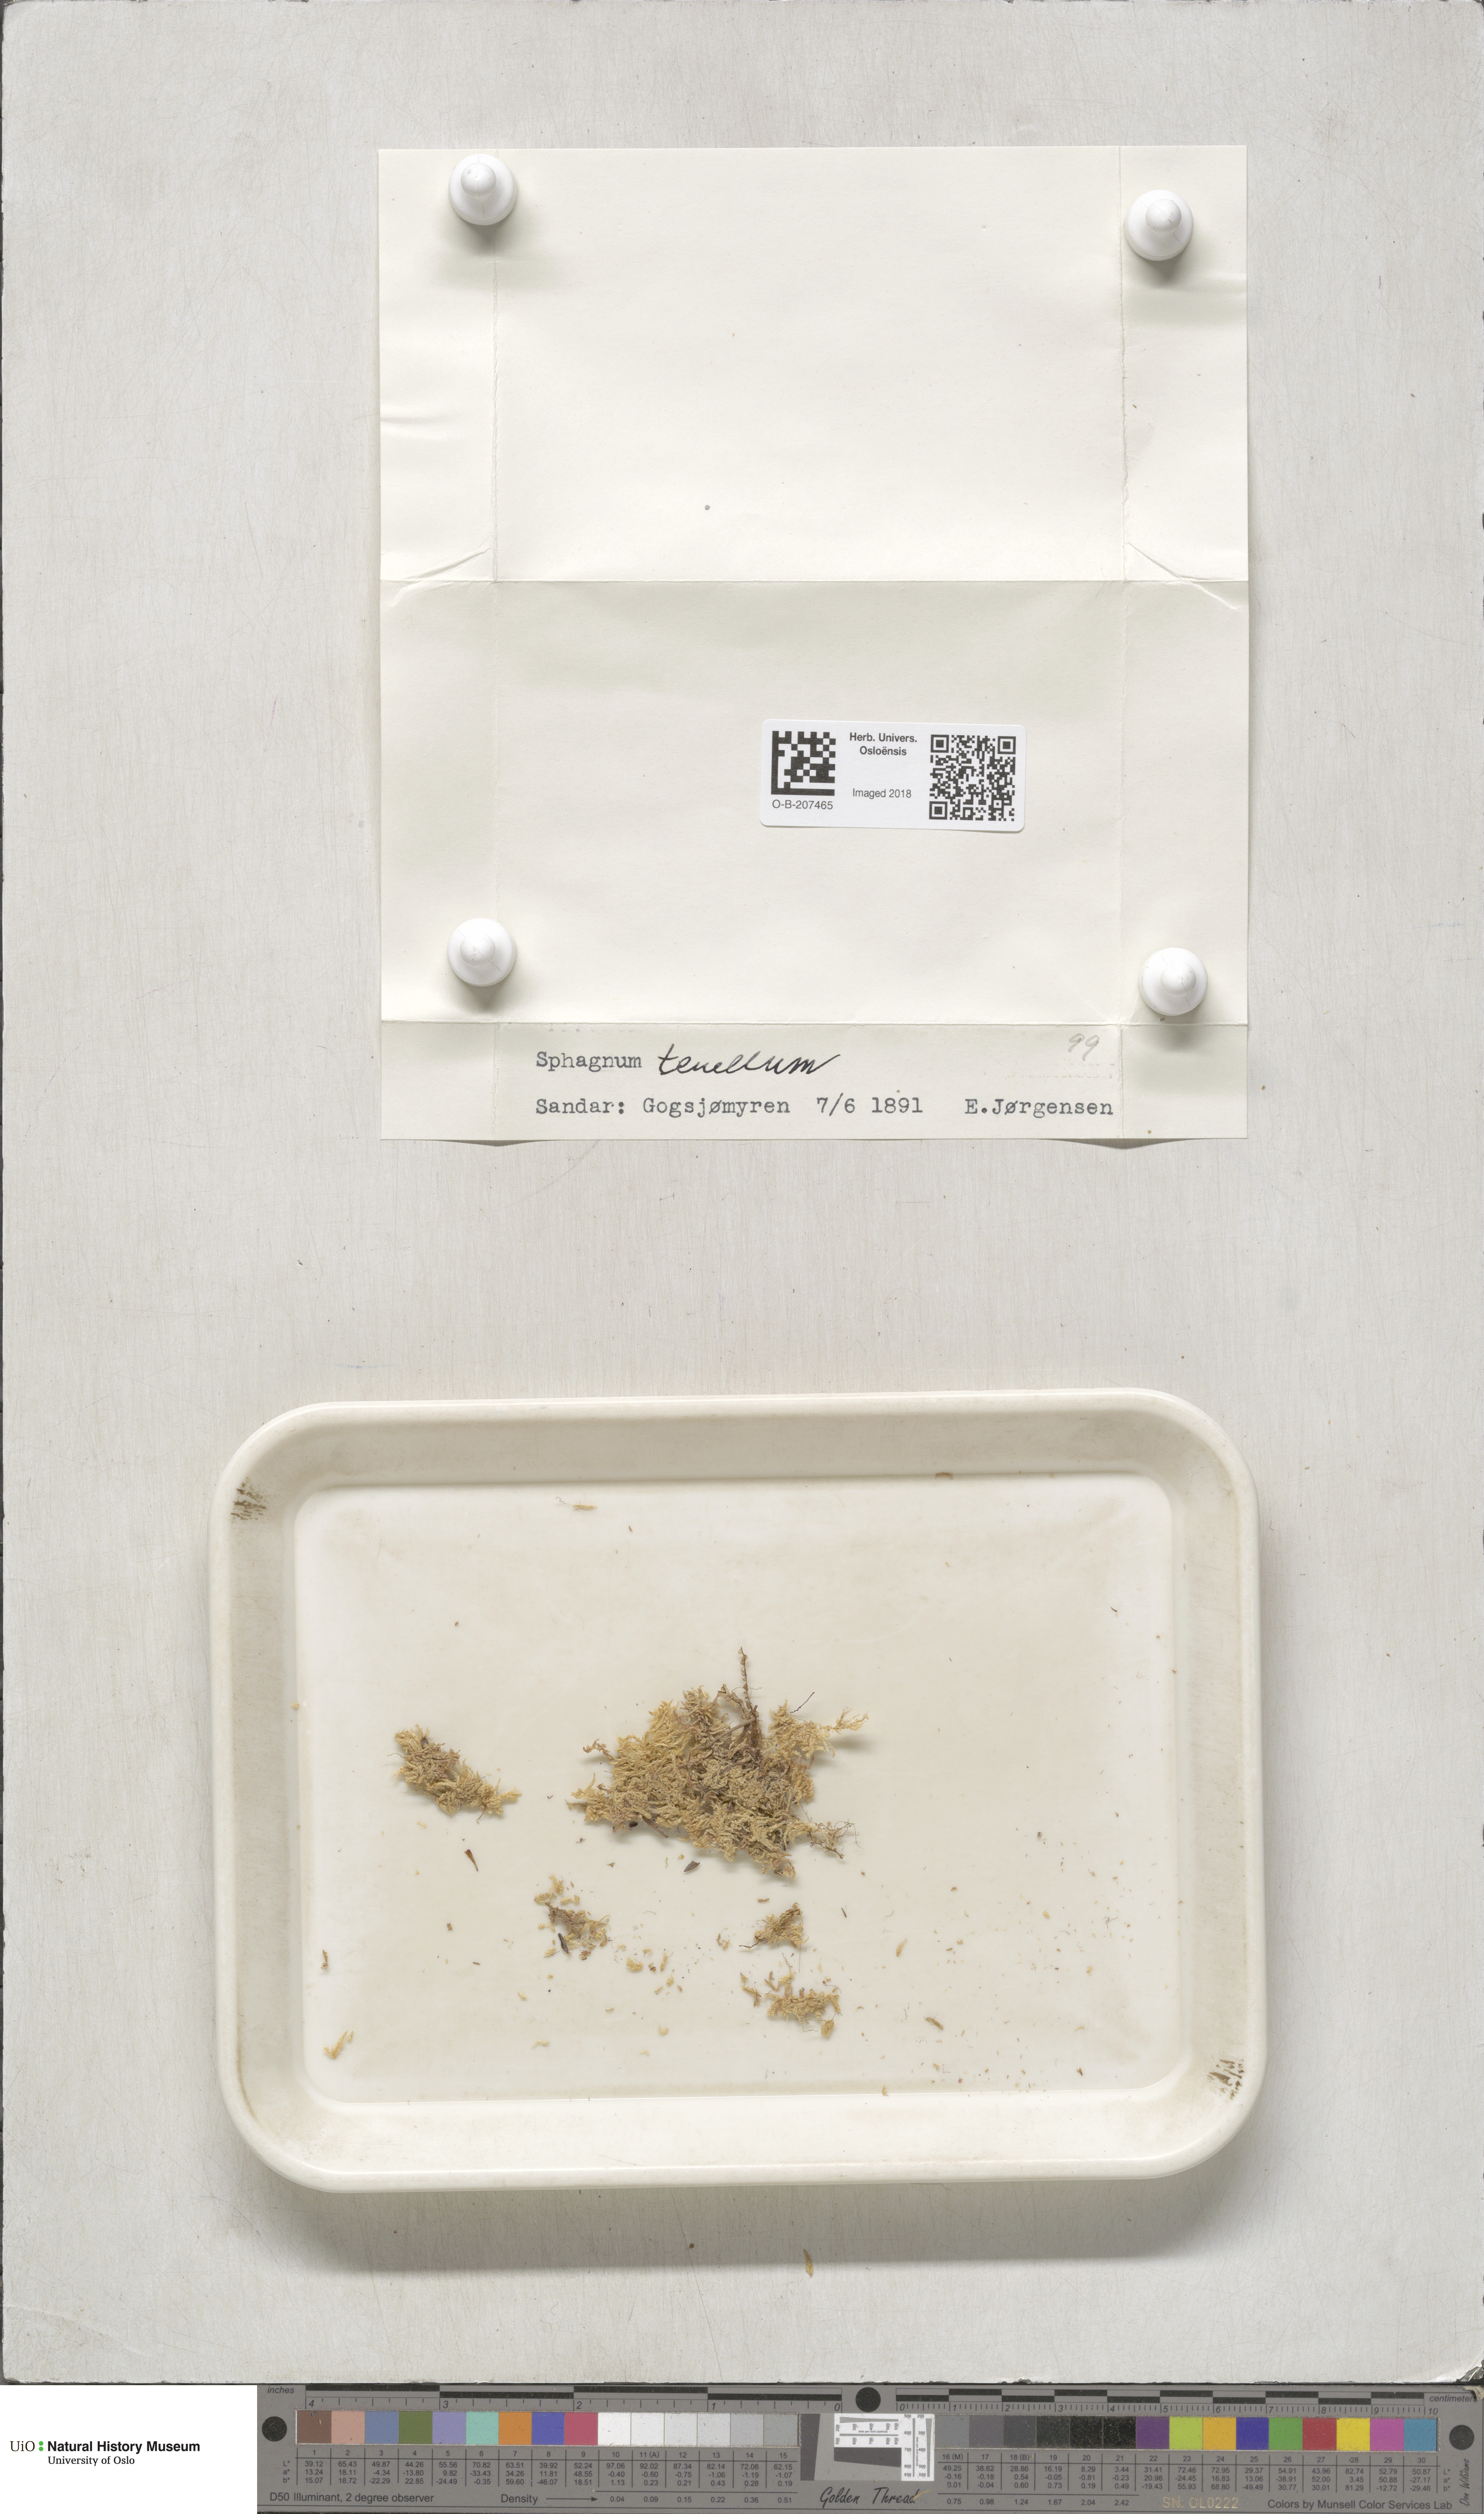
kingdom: Plantae
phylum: Bryophyta
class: Sphagnopsida
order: Sphagnales
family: Sphagnaceae
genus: Sphagnum
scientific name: Sphagnum tenellum
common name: Soft bog-moss
